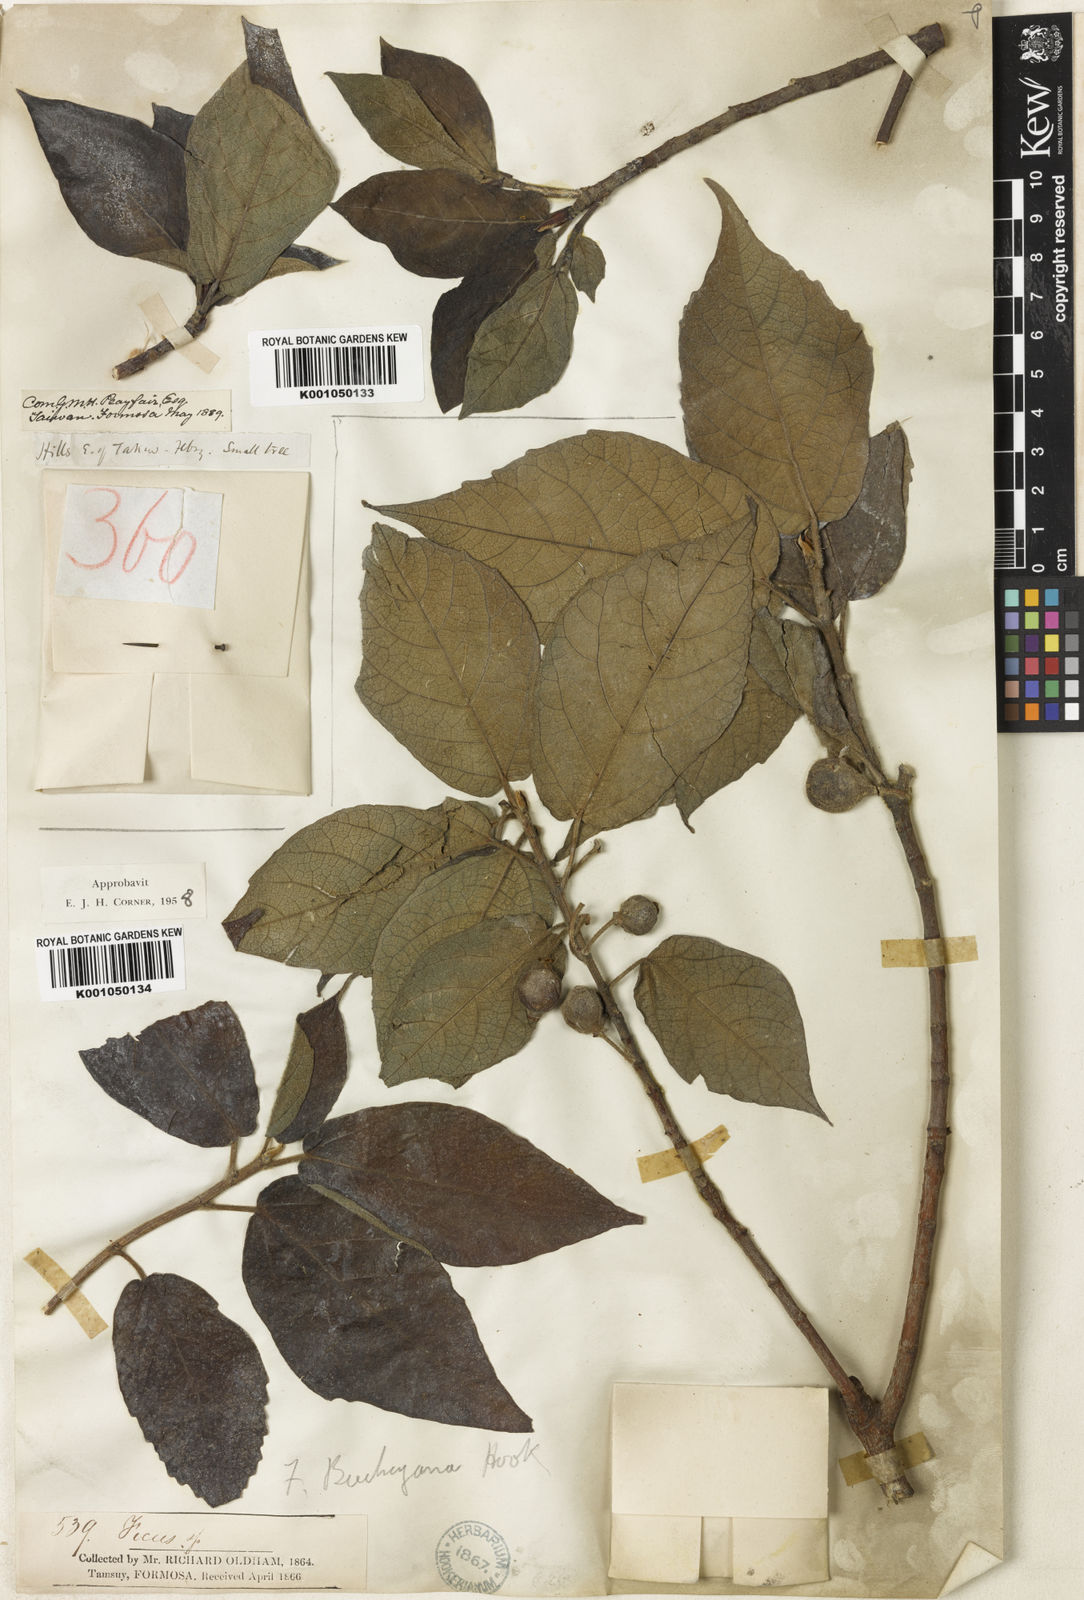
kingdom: Plantae
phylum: Tracheophyta
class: Magnoliopsida
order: Rosales
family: Moraceae
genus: Ficus
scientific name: Ficus erecta
